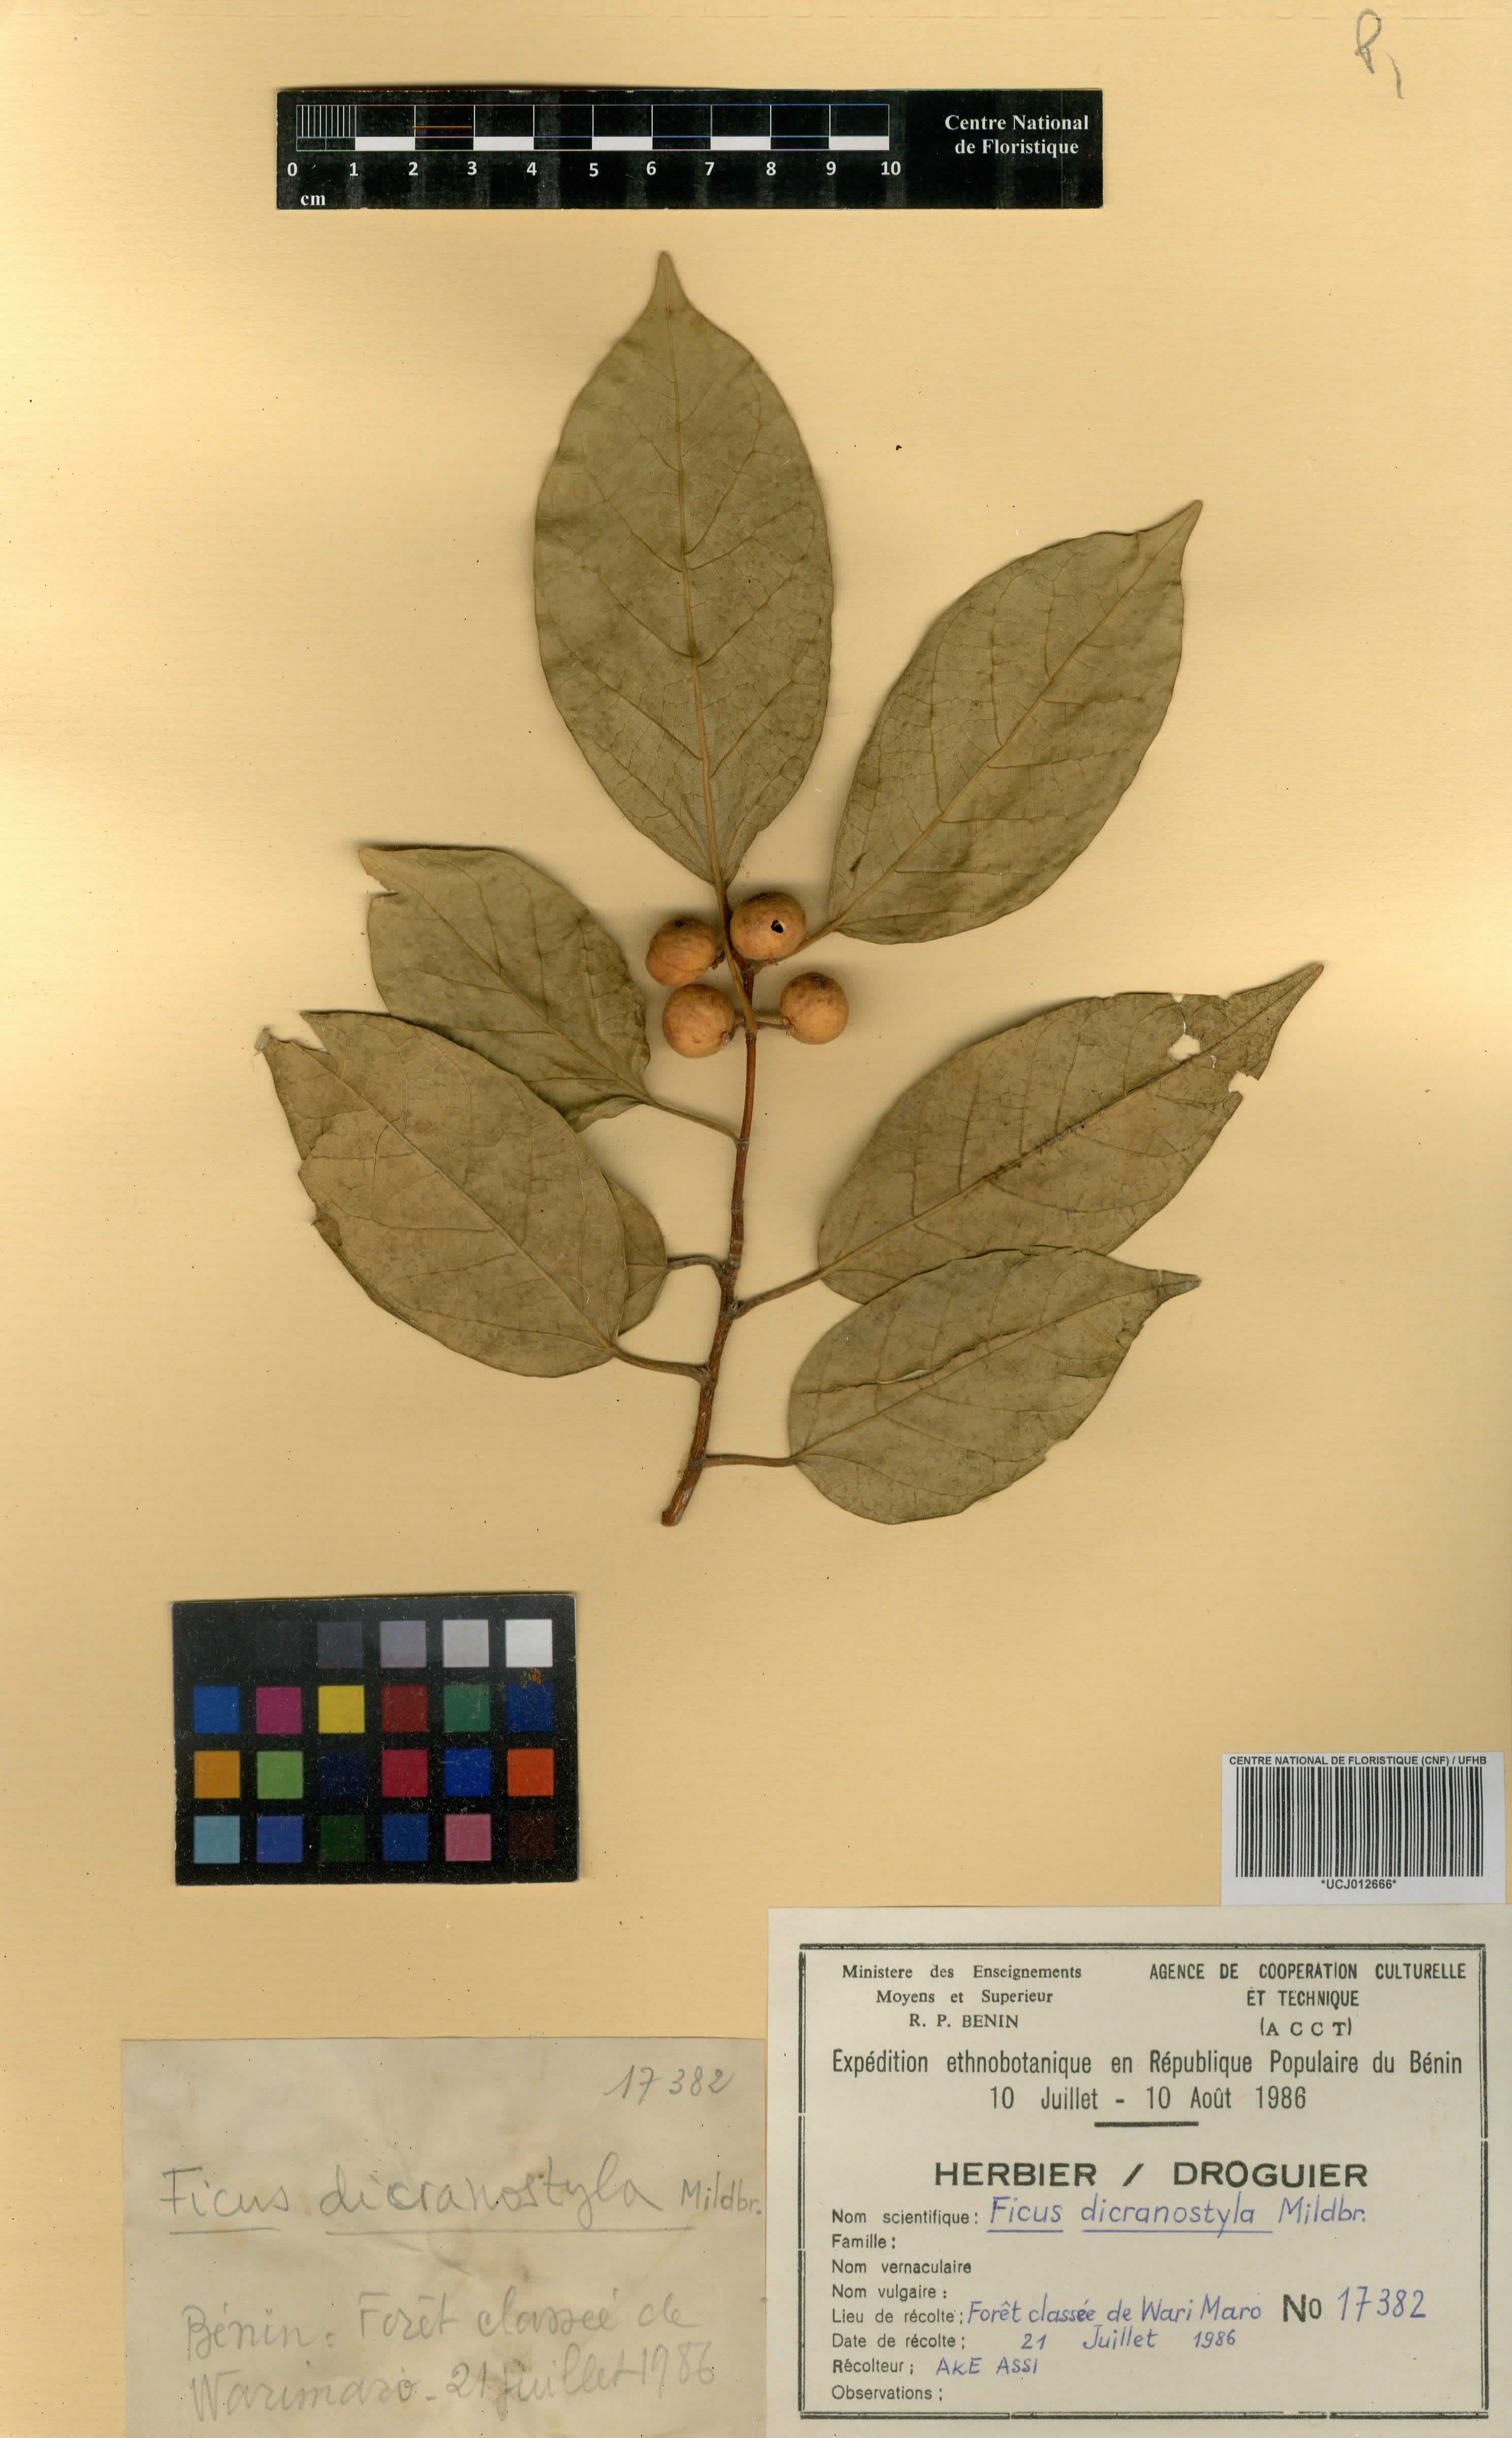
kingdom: Plantae
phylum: Tracheophyta
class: Magnoliopsida
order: Rosales
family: Moraceae
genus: Ficus
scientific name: Ficus dicranostyla
